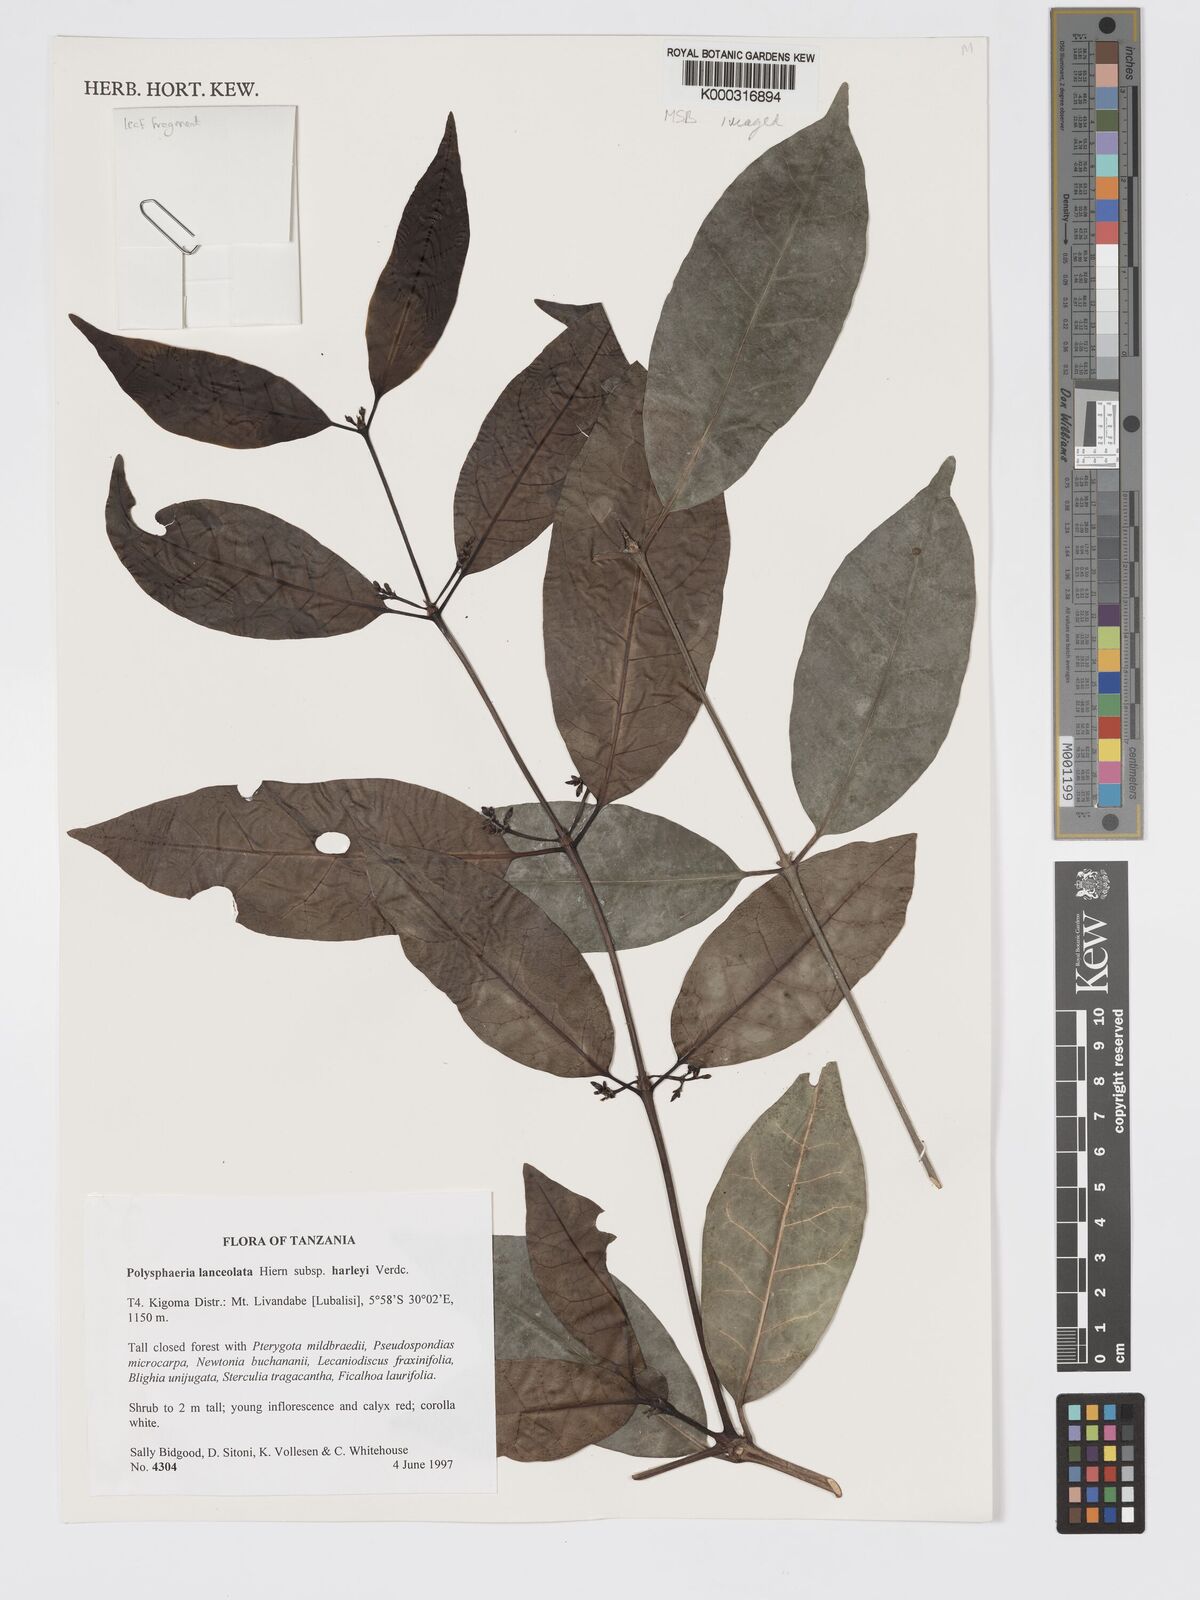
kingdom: Plantae
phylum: Tracheophyta
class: Magnoliopsida
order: Gentianales
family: Rubiaceae
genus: Polysphaeria
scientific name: Polysphaeria lanceolata
